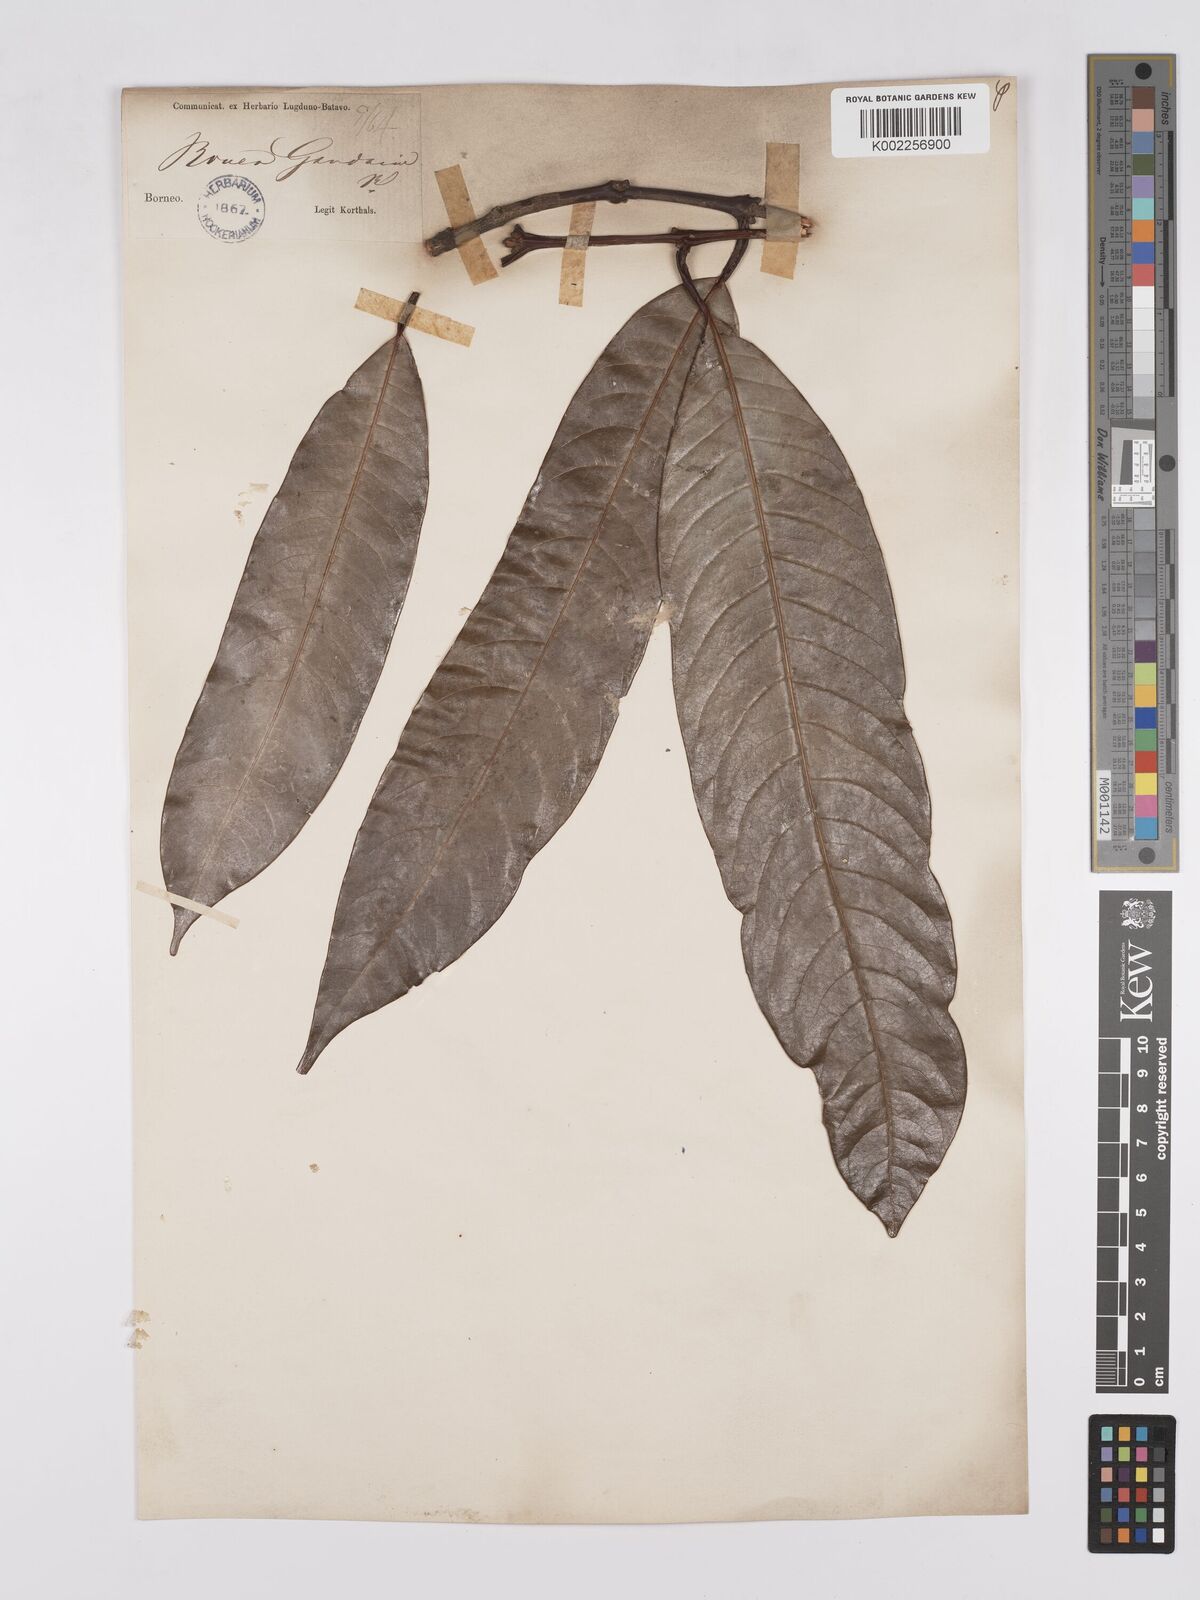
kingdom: Plantae
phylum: Tracheophyta
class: Magnoliopsida
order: Sapindales
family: Anacardiaceae
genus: Bouea
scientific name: Bouea macrophylla
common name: Gandaria
